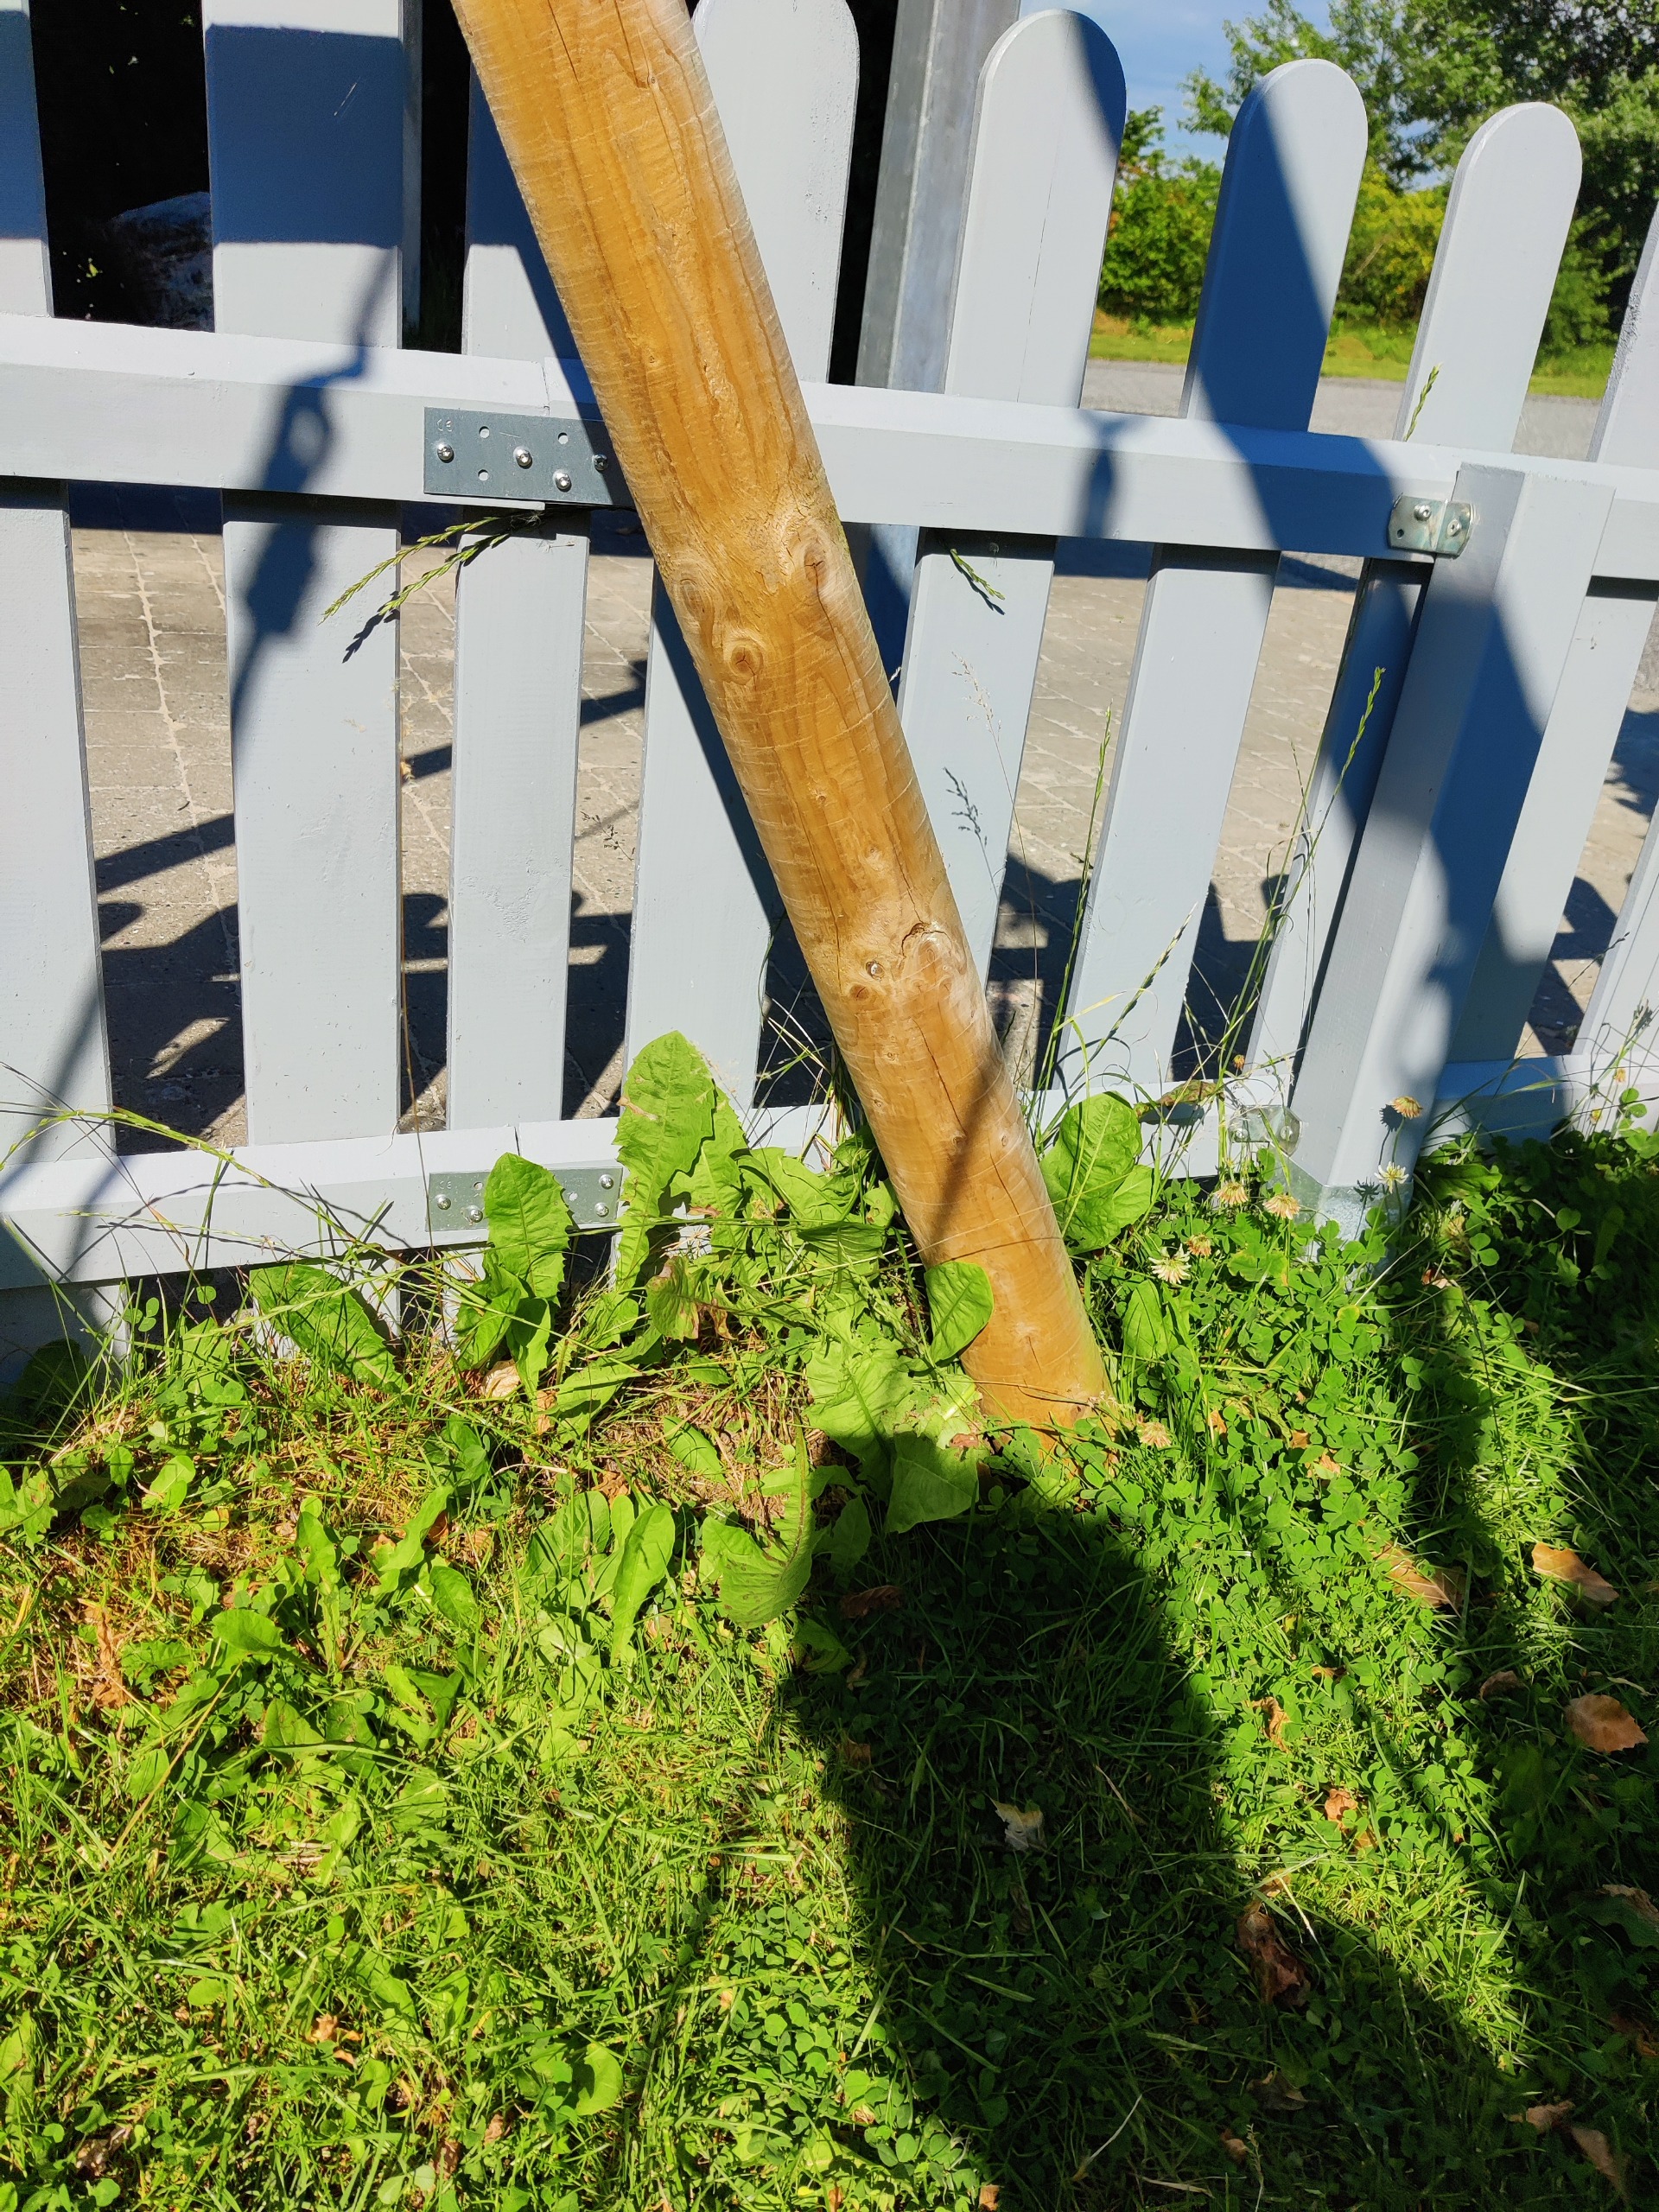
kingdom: Plantae
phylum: Tracheophyta
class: Magnoliopsida
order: Asterales
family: Asteraceae
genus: Taraxacum
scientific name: Taraxacum
